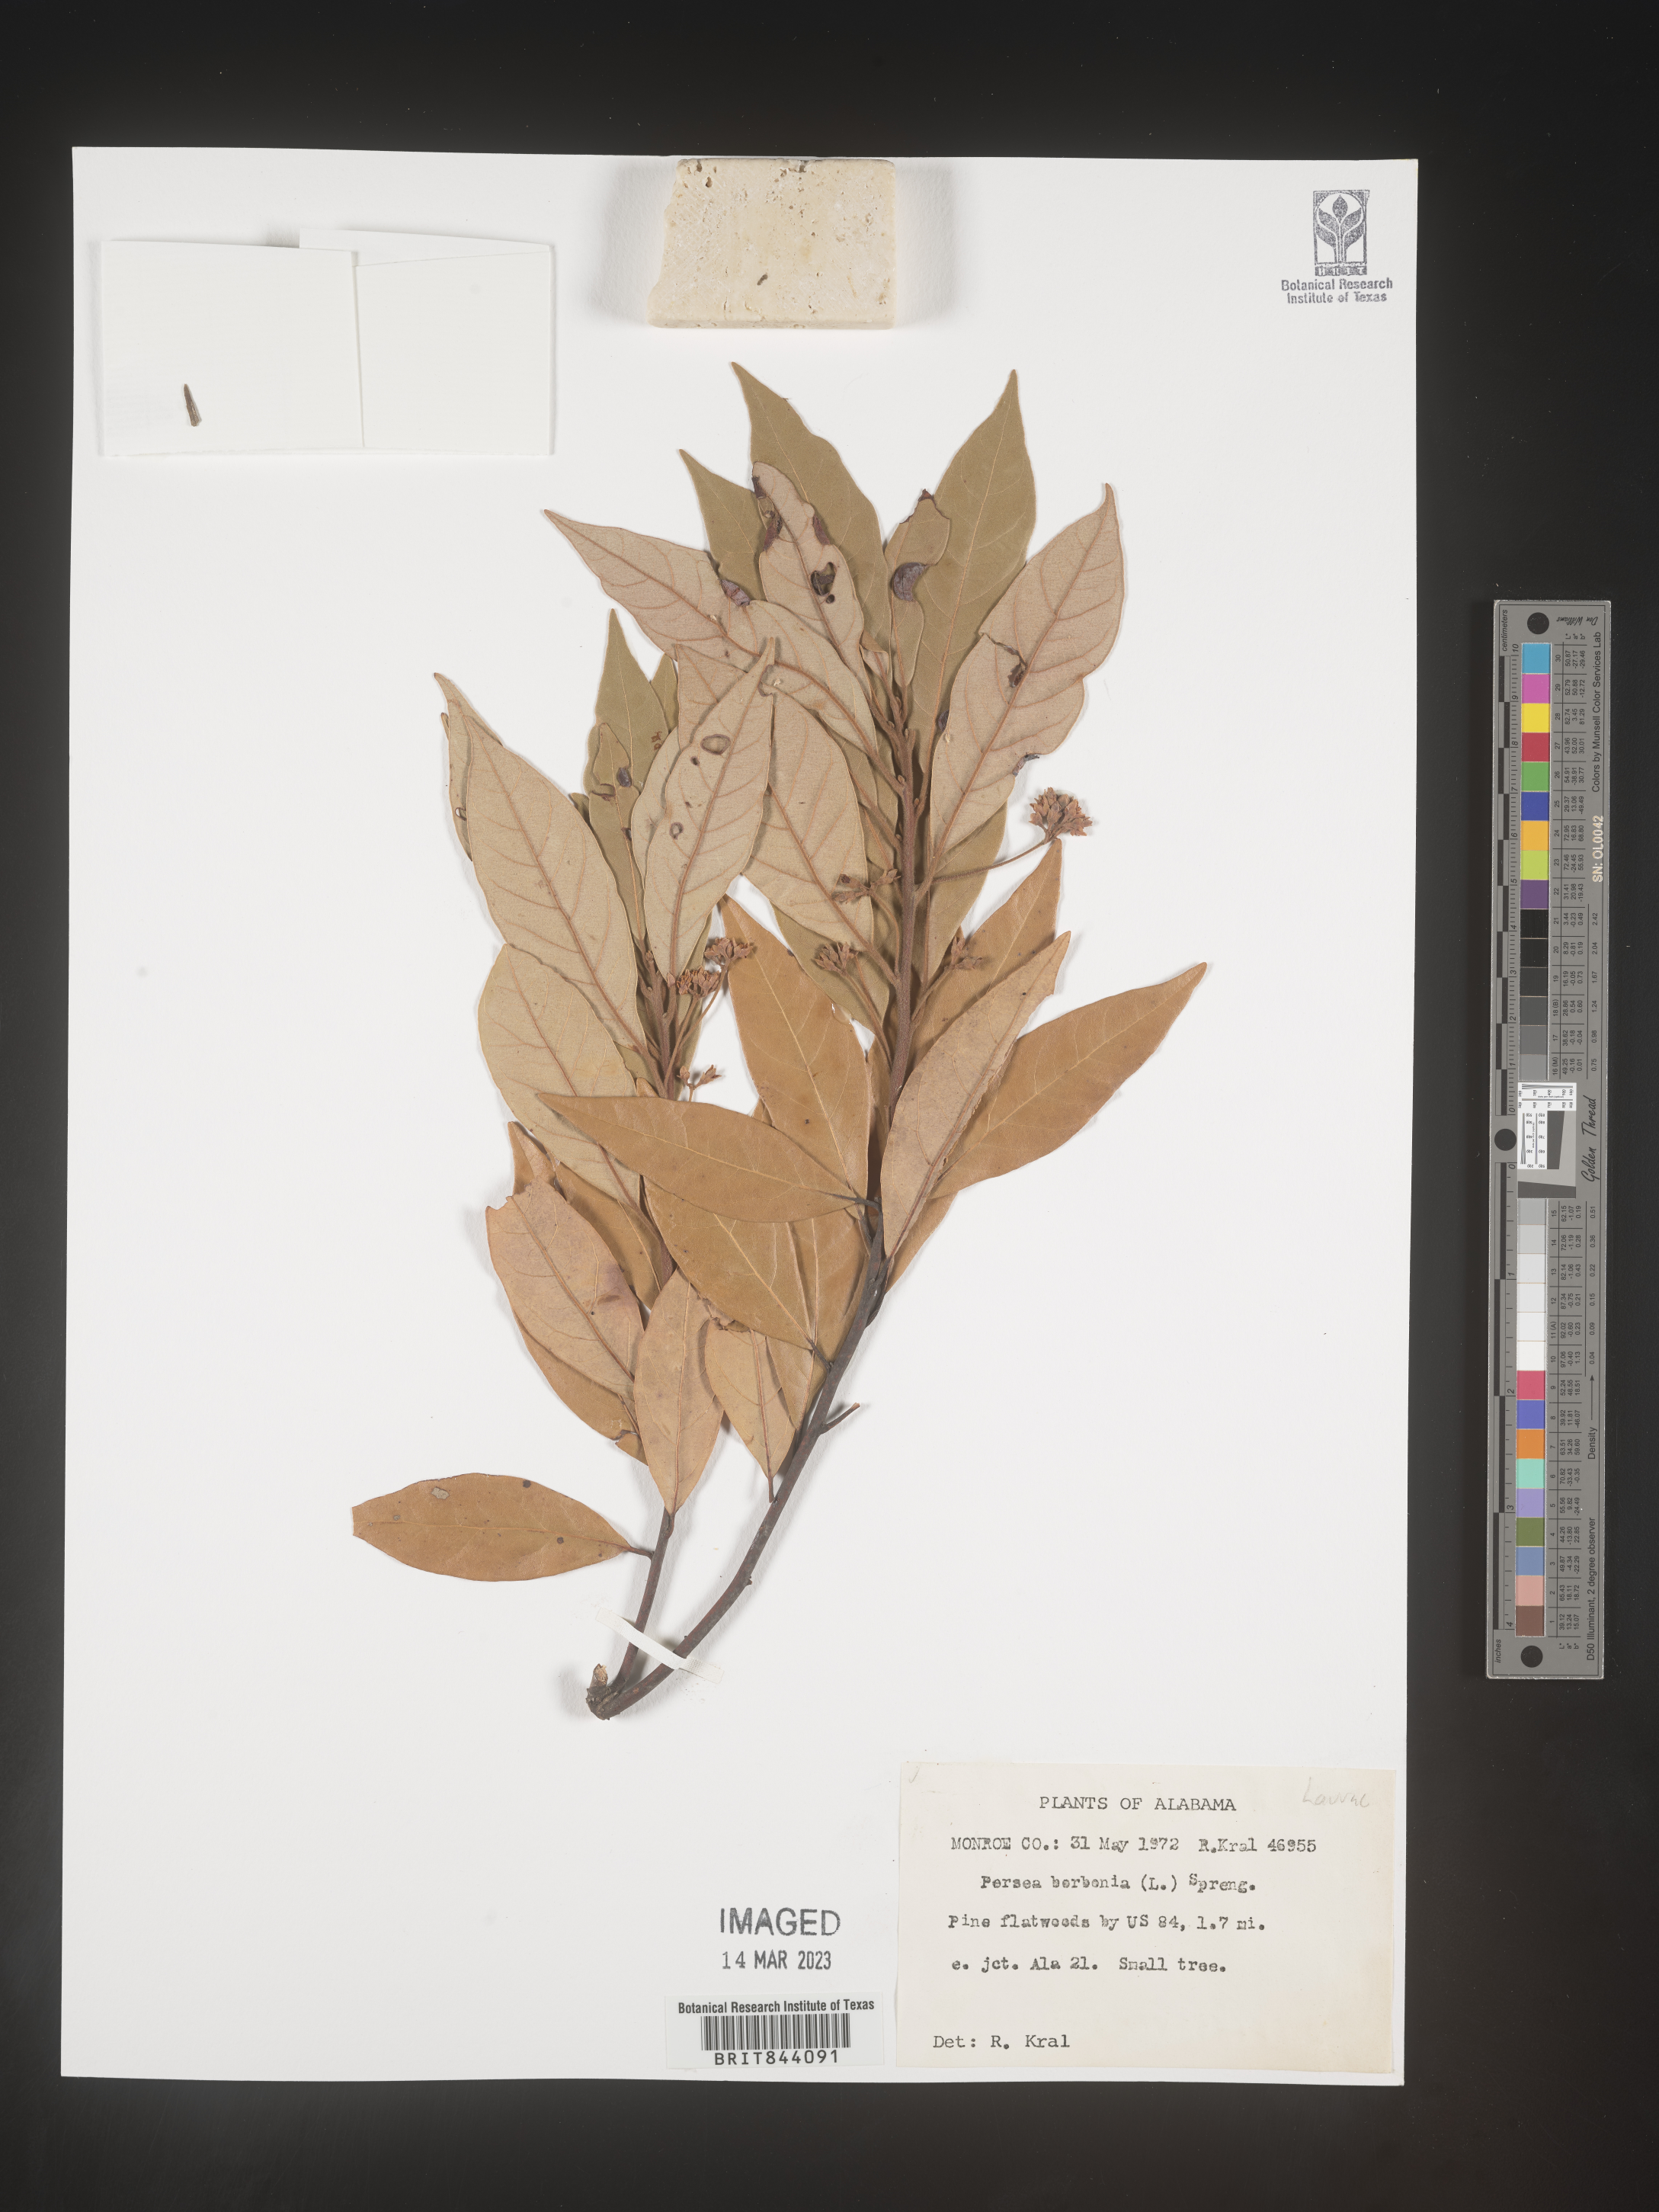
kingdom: Plantae
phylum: Tracheophyta
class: Magnoliopsida
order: Laurales
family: Lauraceae
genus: Persea
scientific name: Persea borbonia
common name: Redbay
